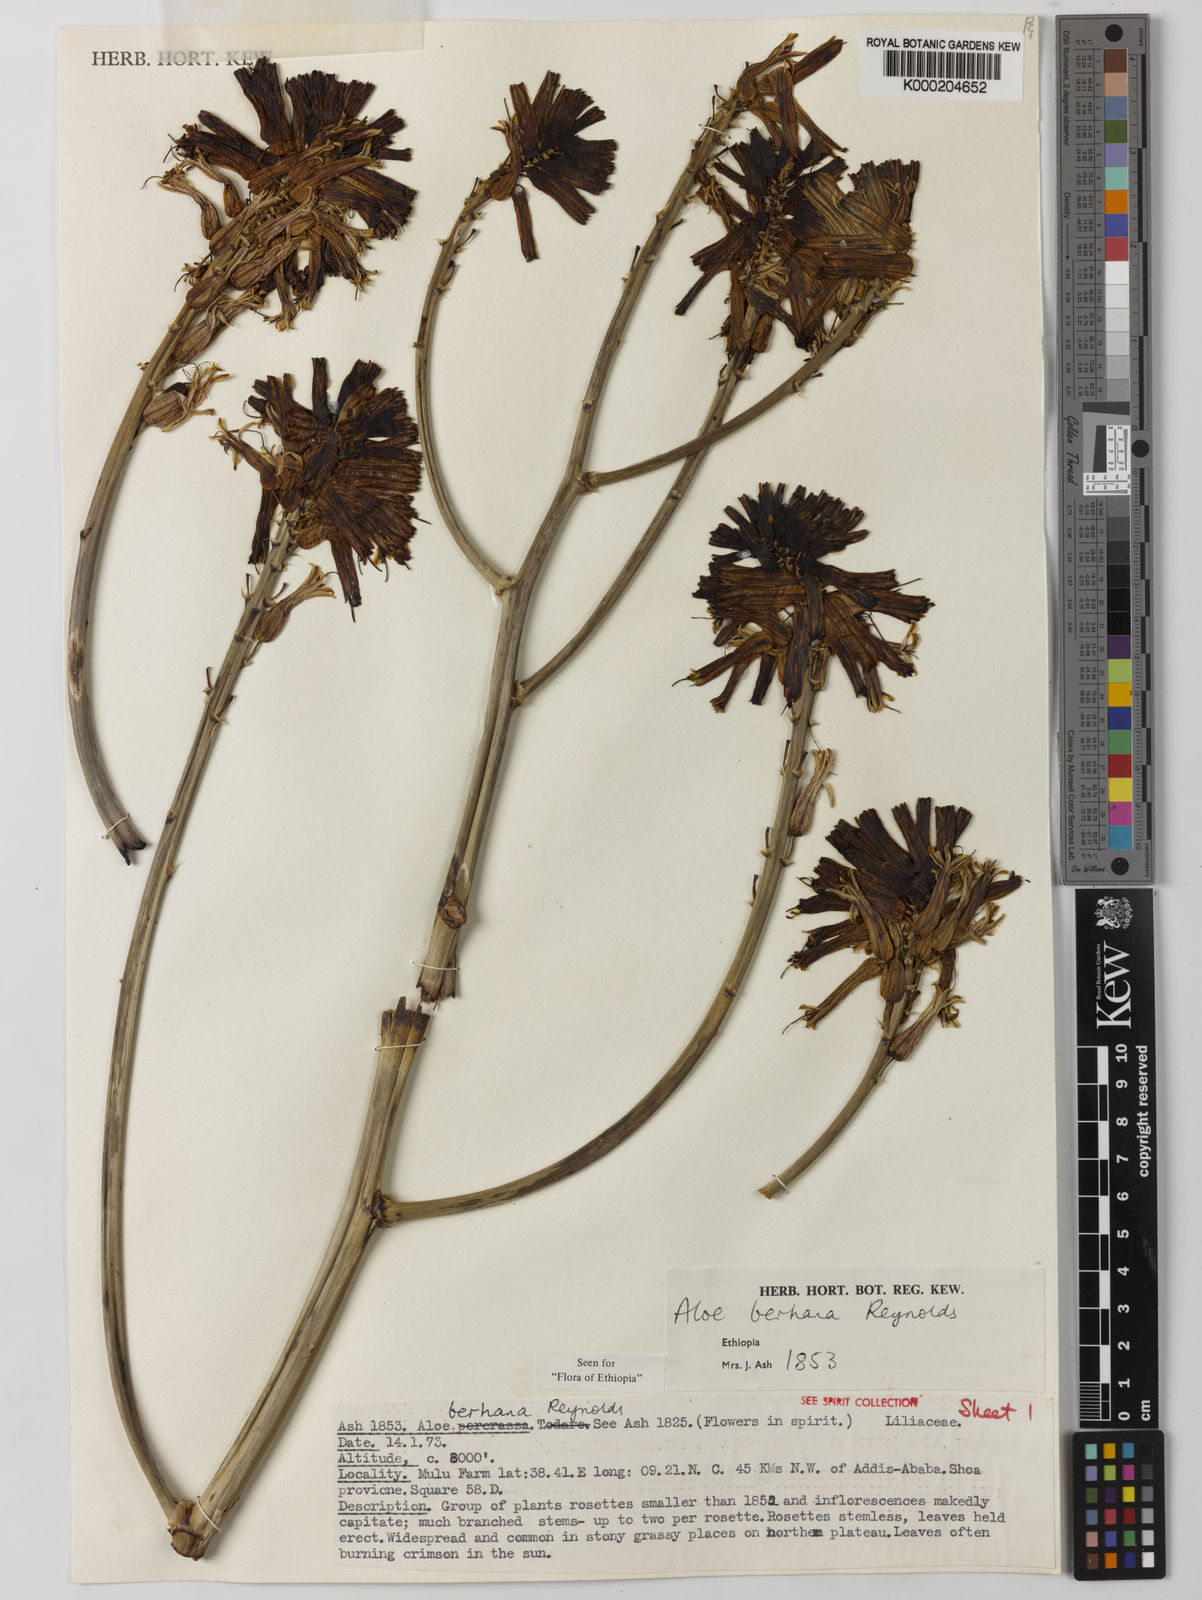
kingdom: Plantae
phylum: Tracheophyta
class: Liliopsida
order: Asparagales
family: Asphodelaceae
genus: Aloe
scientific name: Aloe debrana
